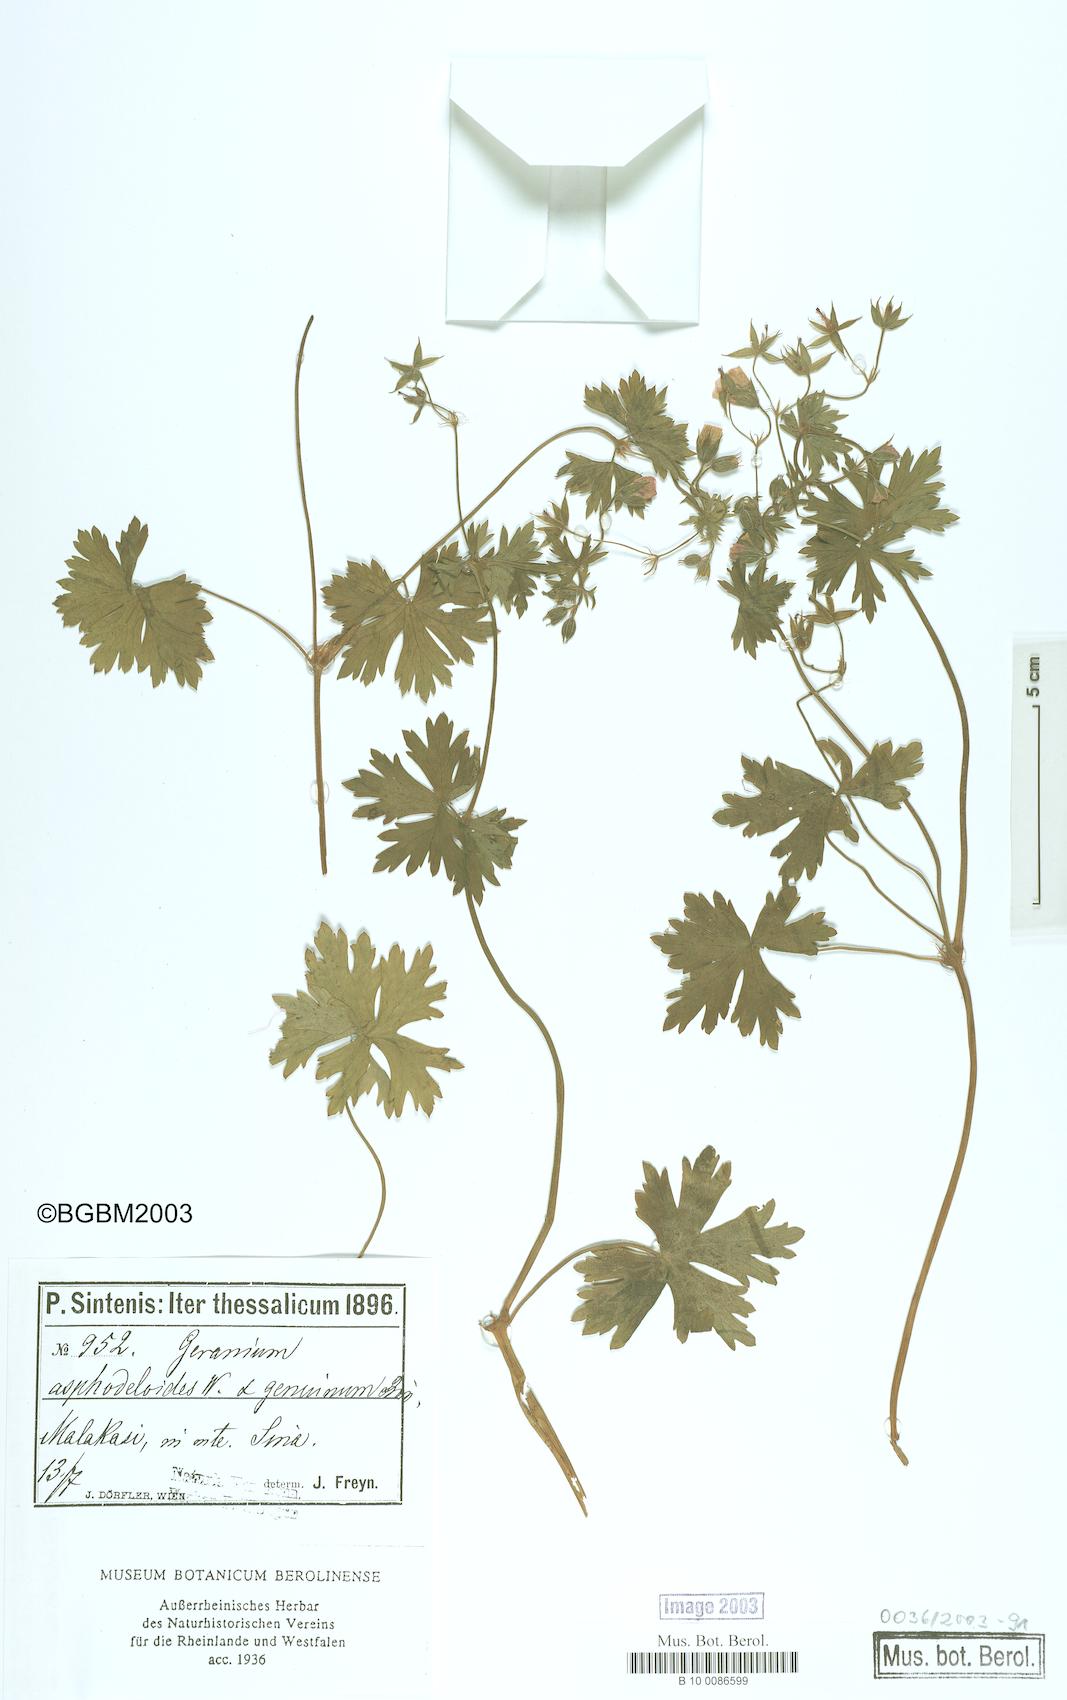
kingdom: Plantae
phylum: Tracheophyta
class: Magnoliopsida
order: Geraniales
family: Geraniaceae
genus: Geranium
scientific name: Geranium asphodeloides
